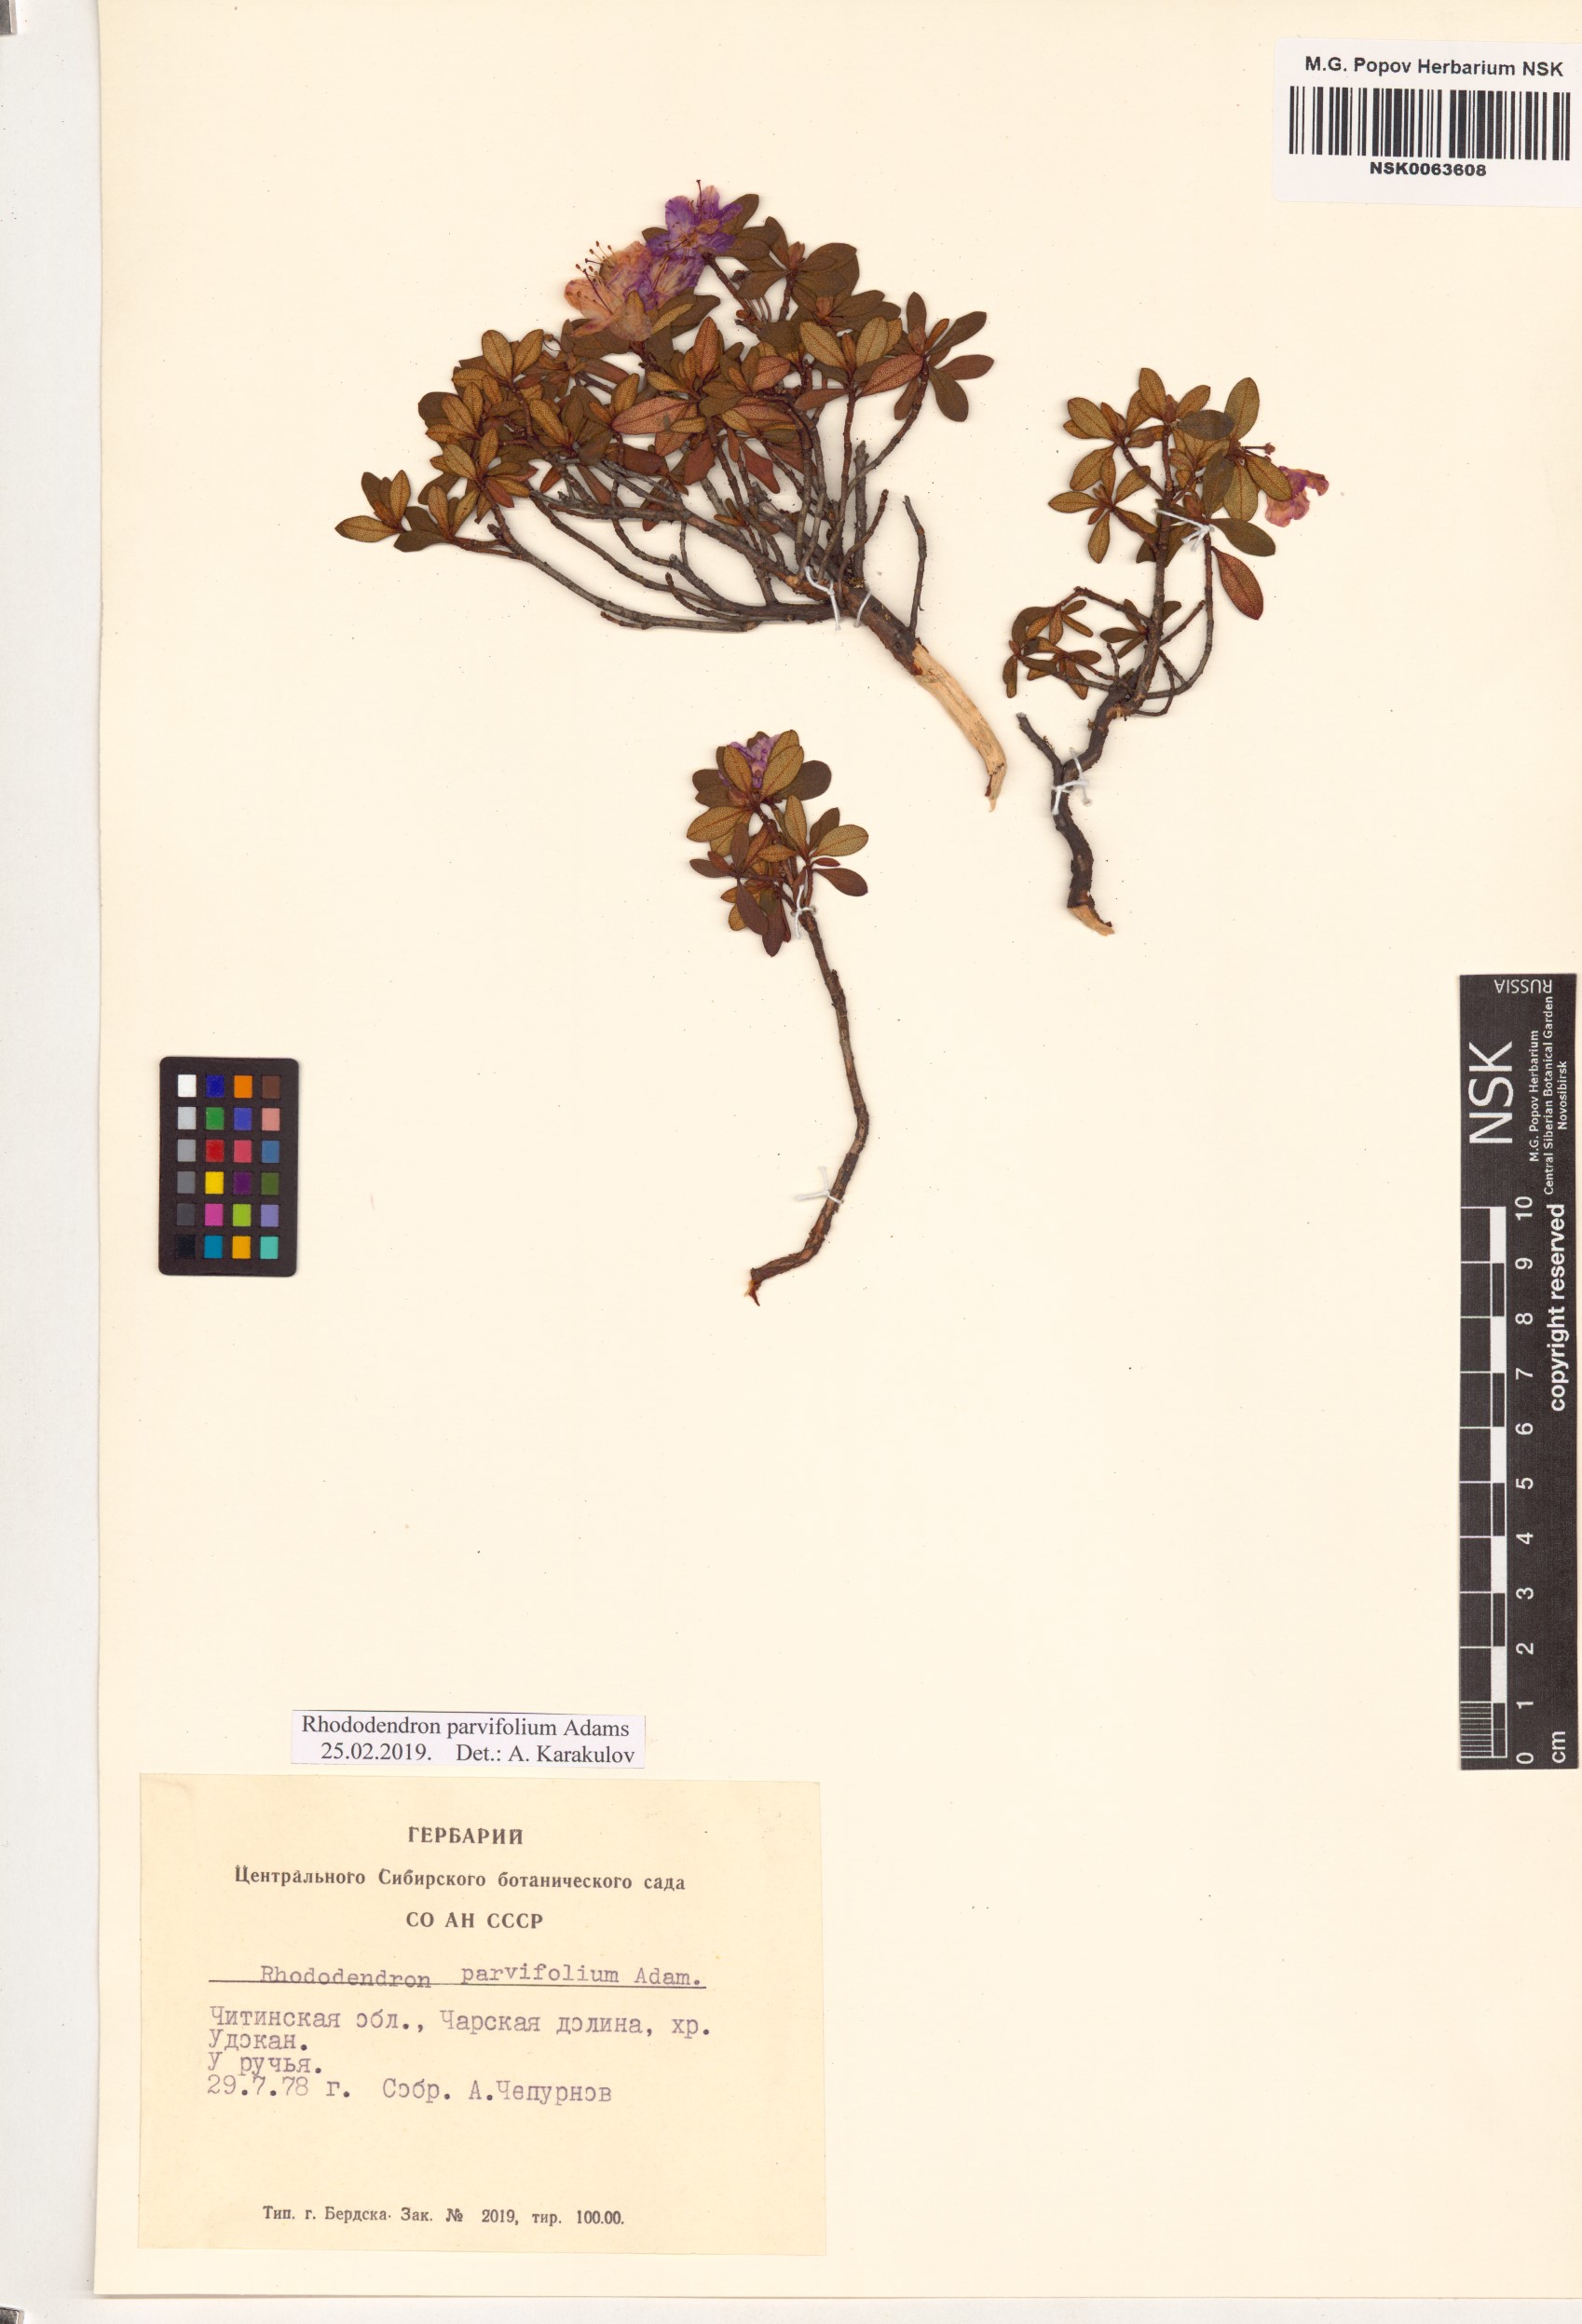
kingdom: Plantae
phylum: Tracheophyta
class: Magnoliopsida
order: Ericales
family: Ericaceae
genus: Rhododendron
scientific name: Rhododendron parvifolium
